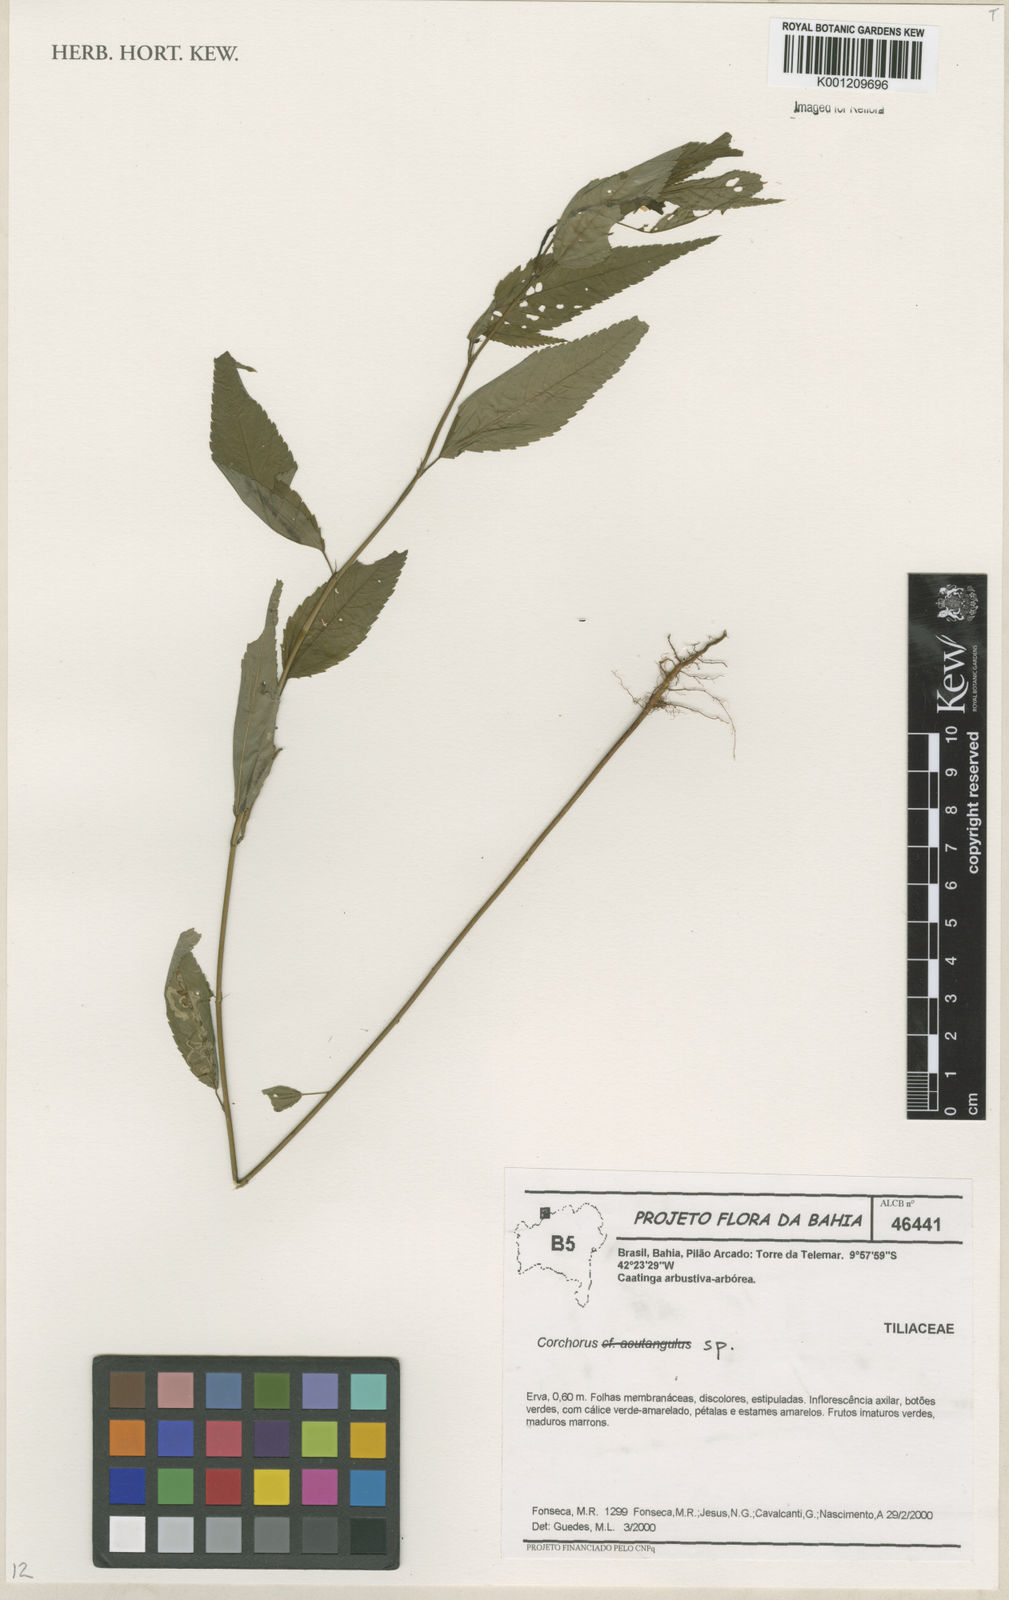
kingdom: Plantae
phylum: Tracheophyta
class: Magnoliopsida
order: Malvales
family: Malvaceae
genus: Corchorus
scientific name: Corchorus
